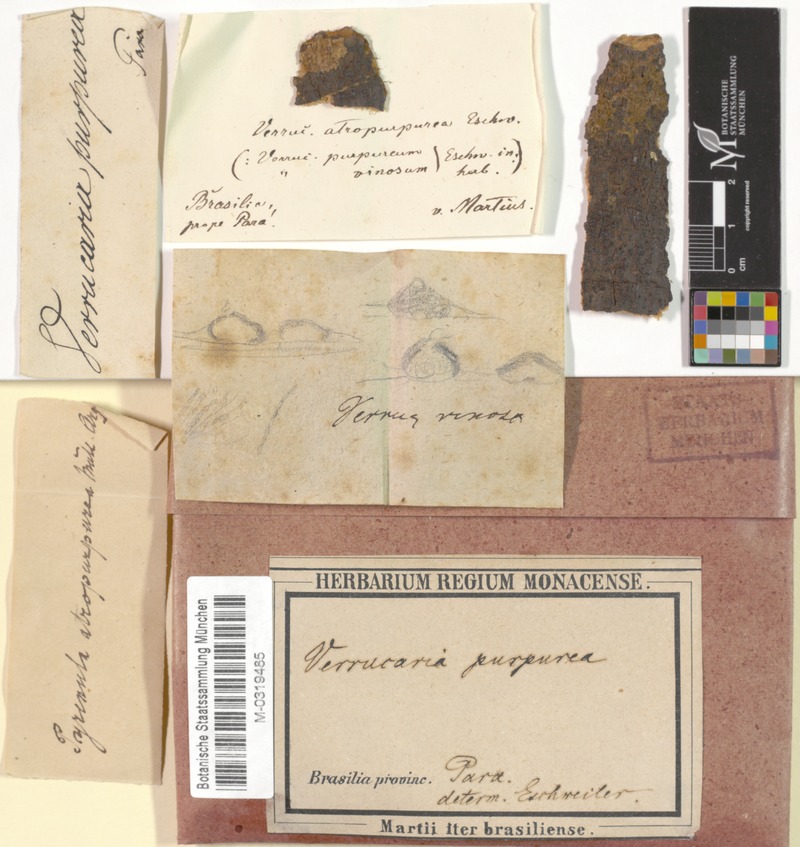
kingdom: Fungi
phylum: Ascomycota
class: Eurotiomycetes
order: Pyrenulales
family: Pyrenulaceae
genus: Pyrenula
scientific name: Pyrenula
